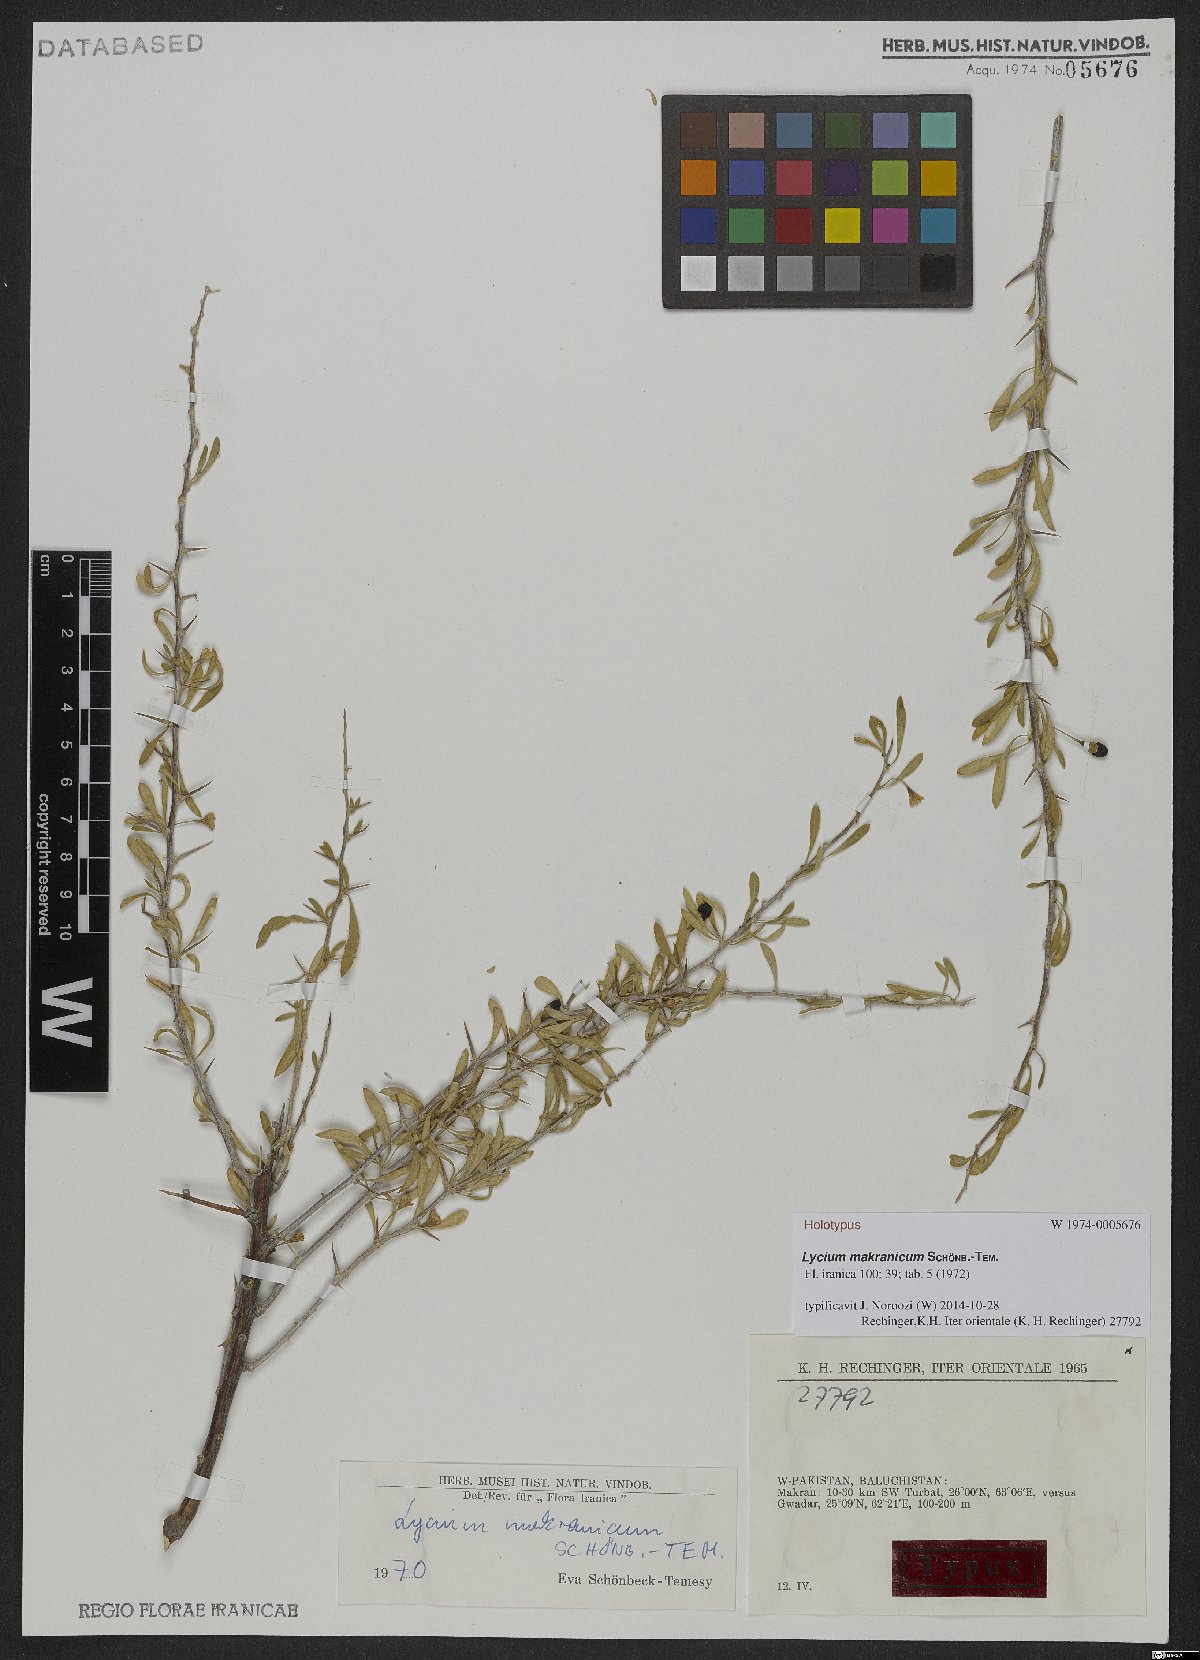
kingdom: Plantae
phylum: Tracheophyta
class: Magnoliopsida
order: Solanales
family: Solanaceae
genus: Lycium
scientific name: Lycium makranicum
